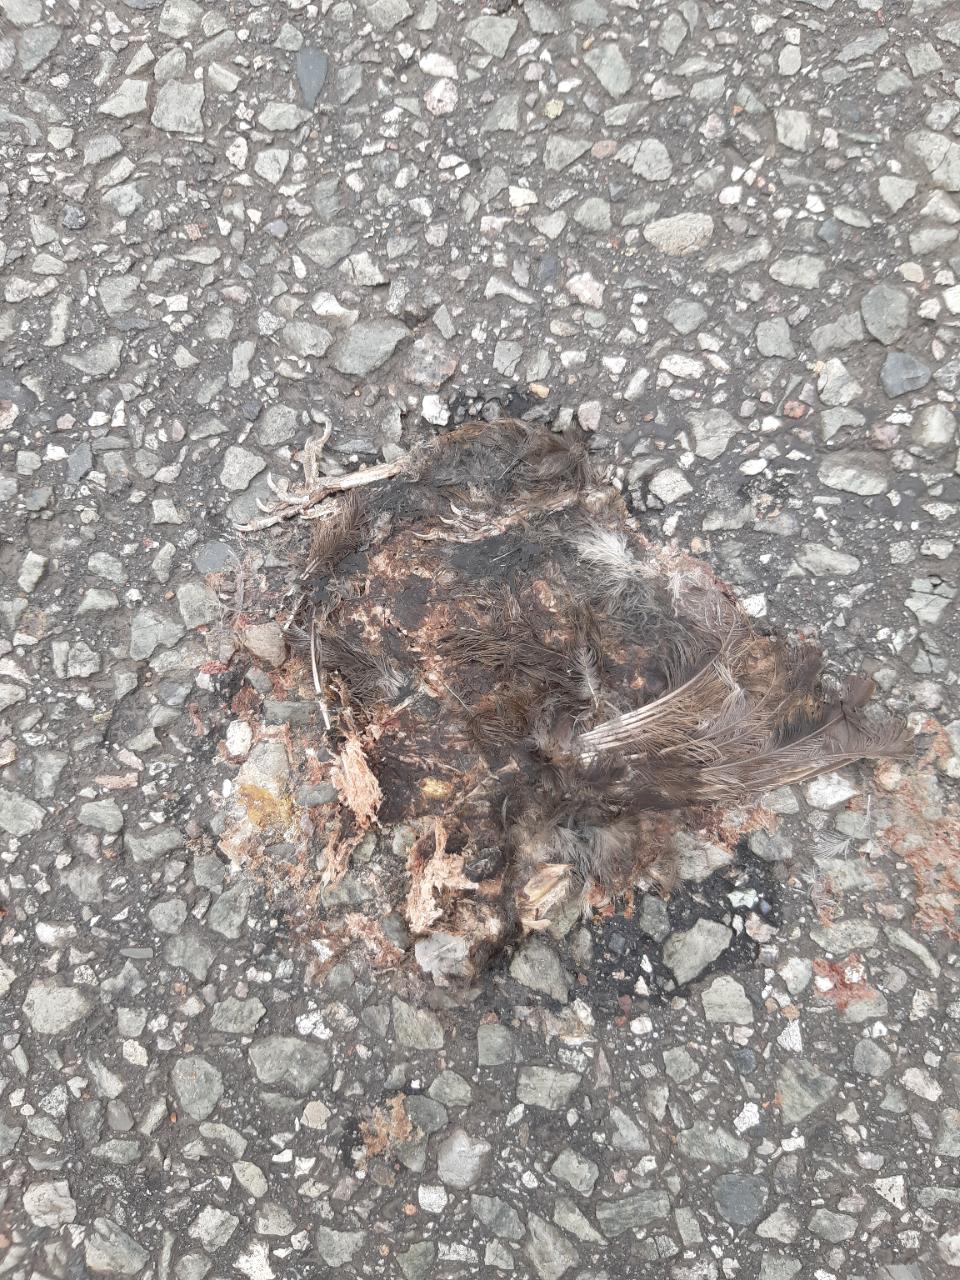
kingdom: Animalia
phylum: Chordata
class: Aves
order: Passeriformes
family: Passeridae
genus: Passer
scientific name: Passer domesticus
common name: House sparrow
